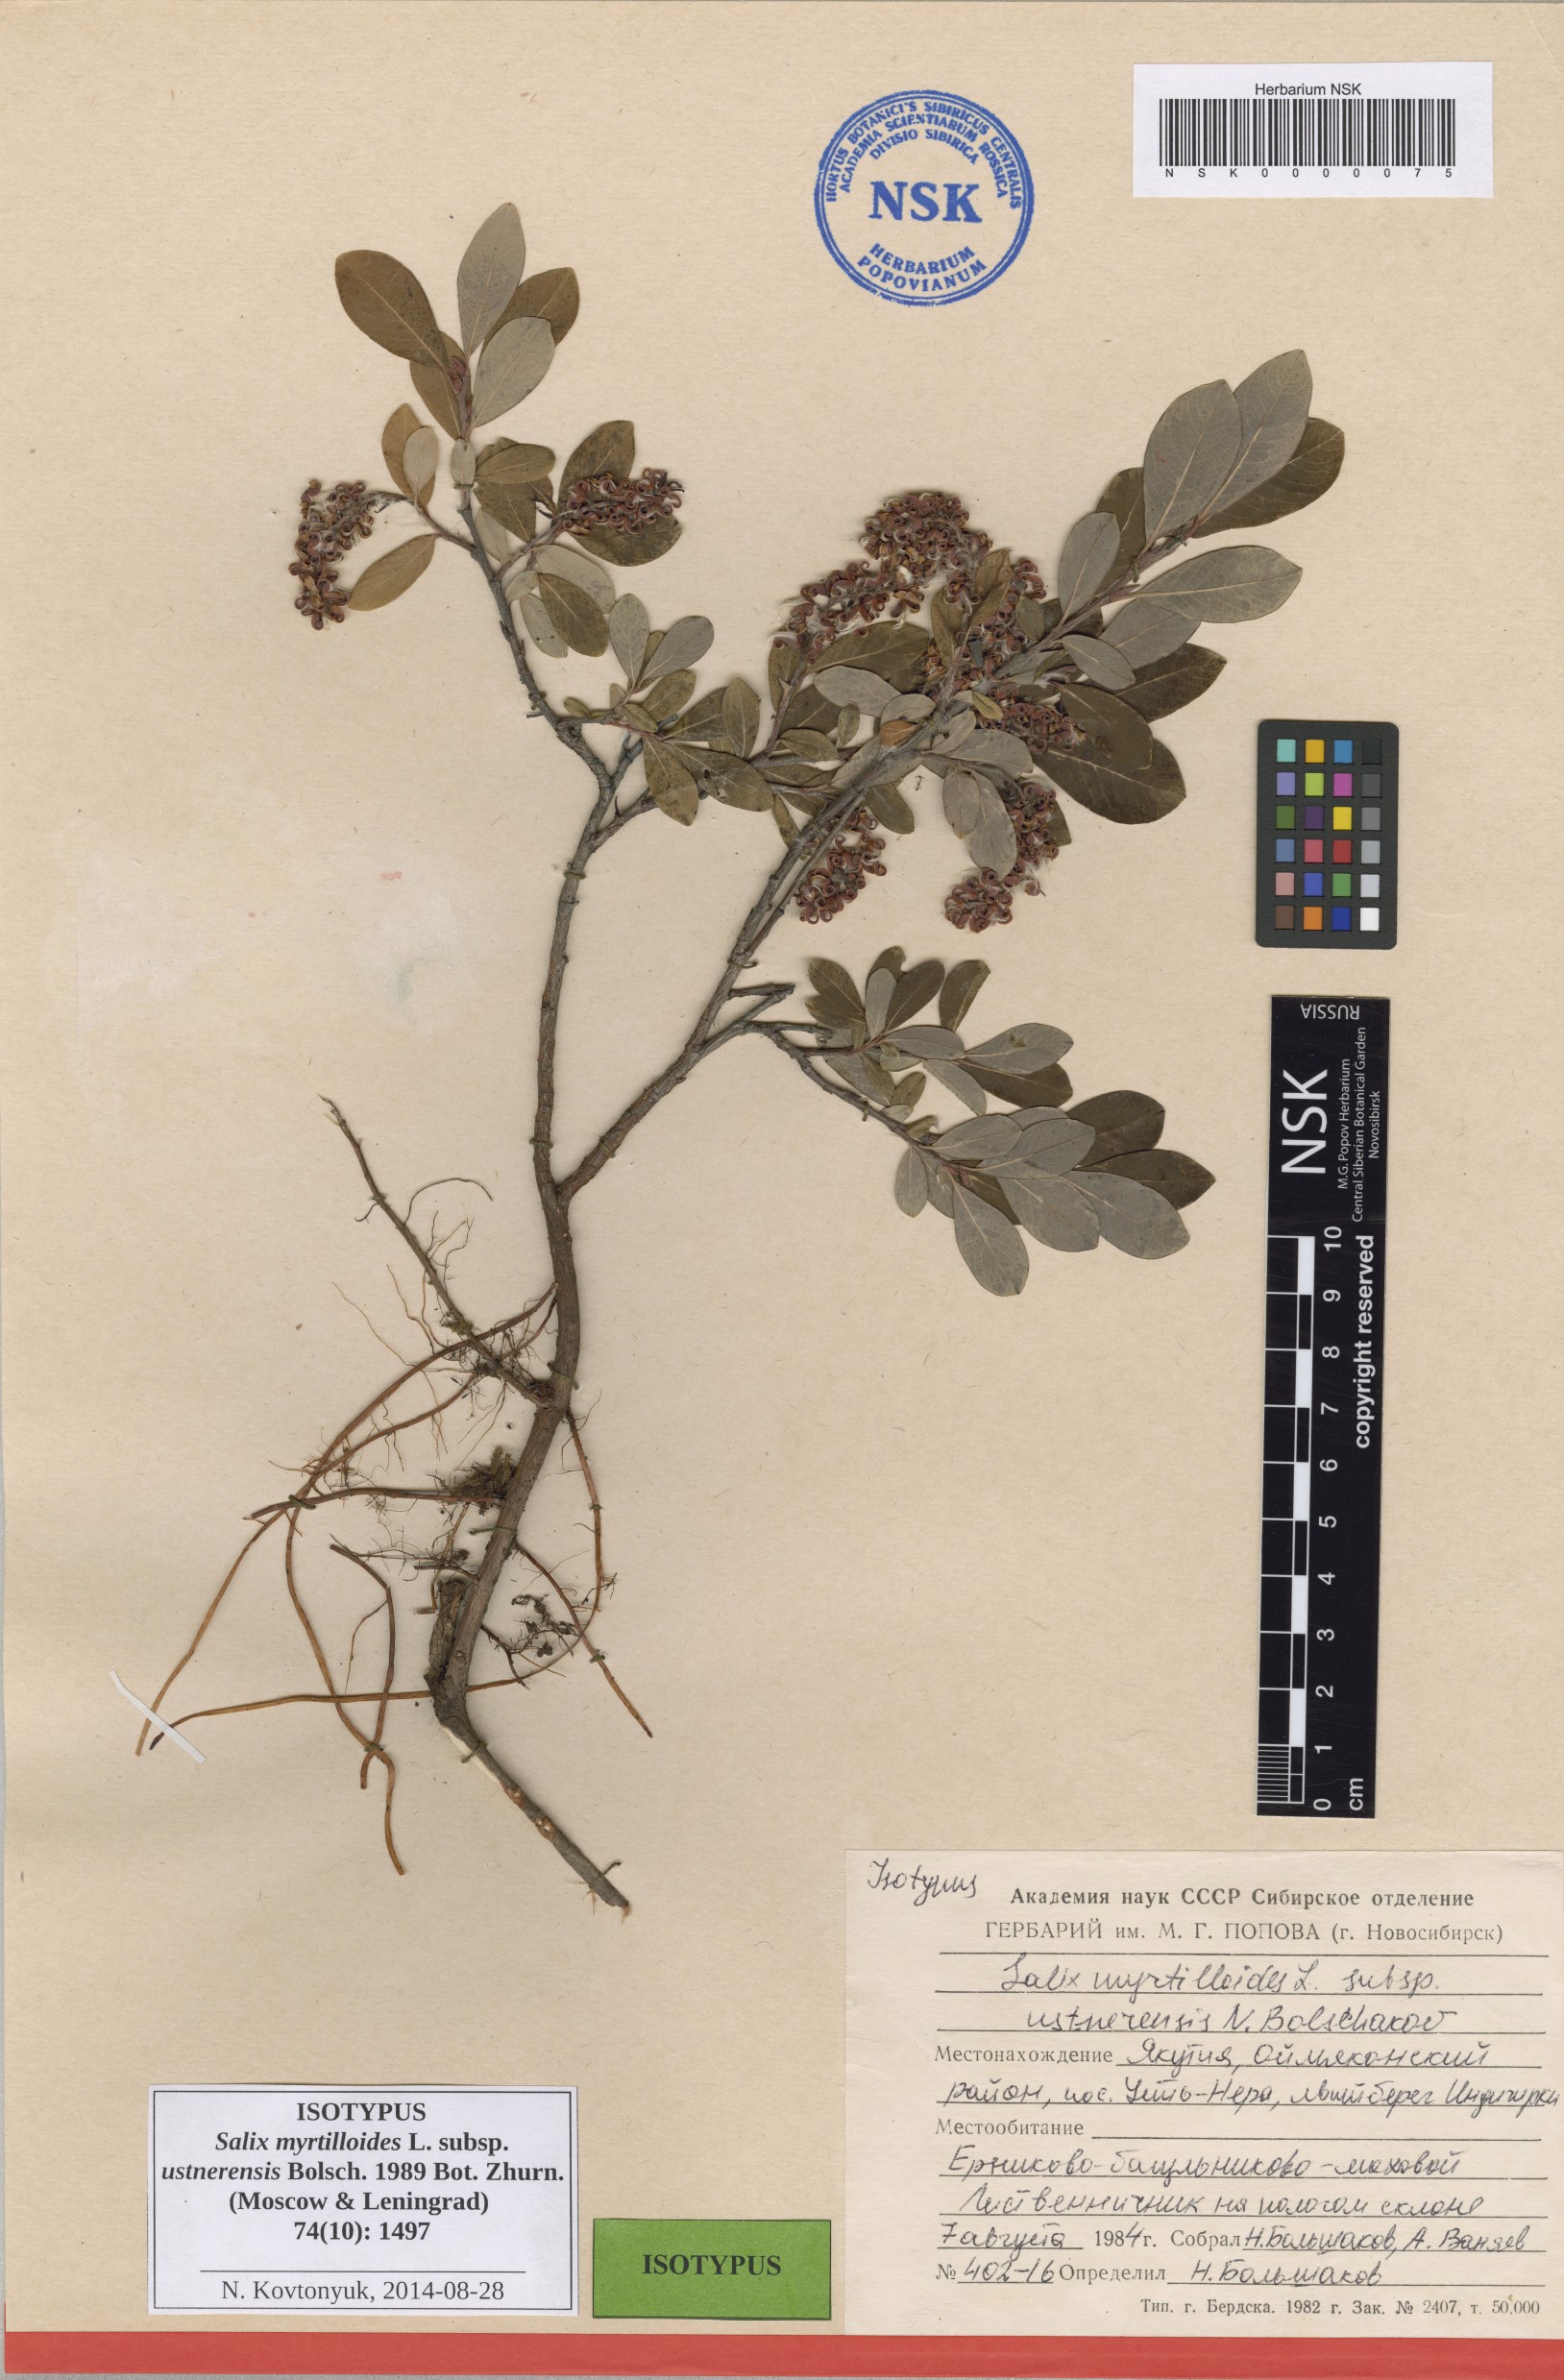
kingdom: Plantae
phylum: Tracheophyta
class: Magnoliopsida
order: Malpighiales
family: Salicaceae
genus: Salix
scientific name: Salix ustnerensis
